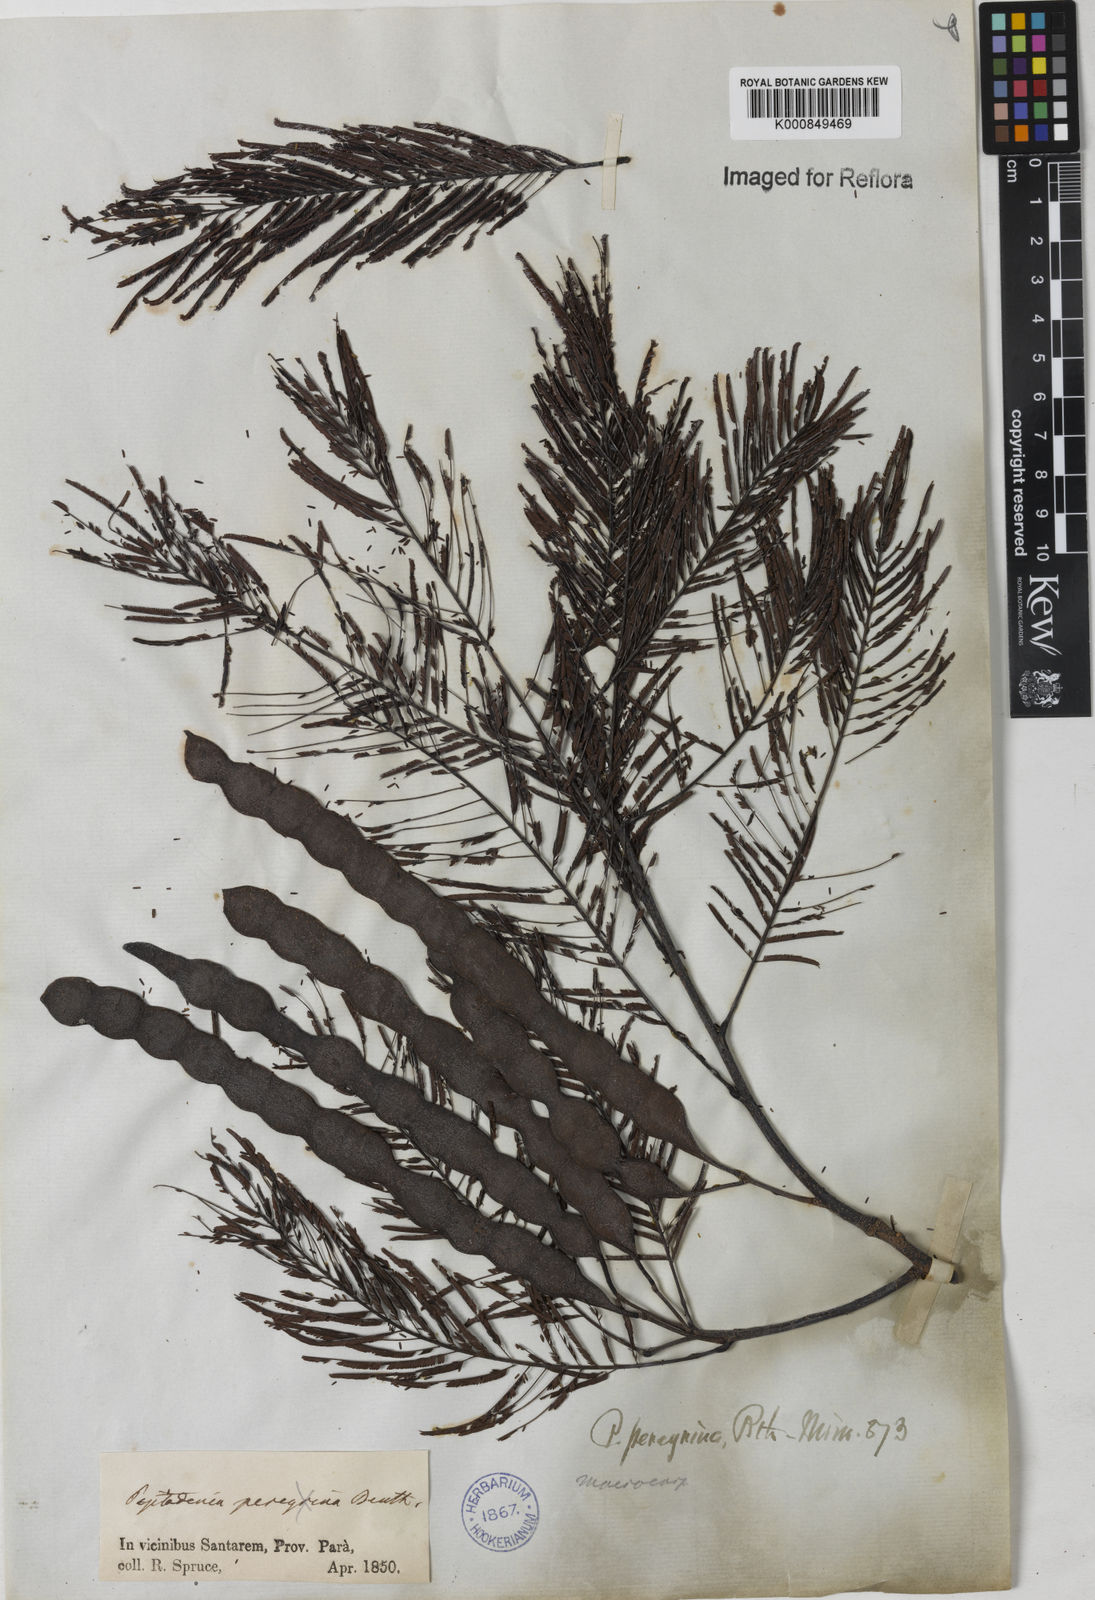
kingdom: Plantae
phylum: Tracheophyta
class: Magnoliopsida
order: Fabales
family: Fabaceae
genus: Anadenanthera
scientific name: Anadenanthera peregrina
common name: Cohoba
